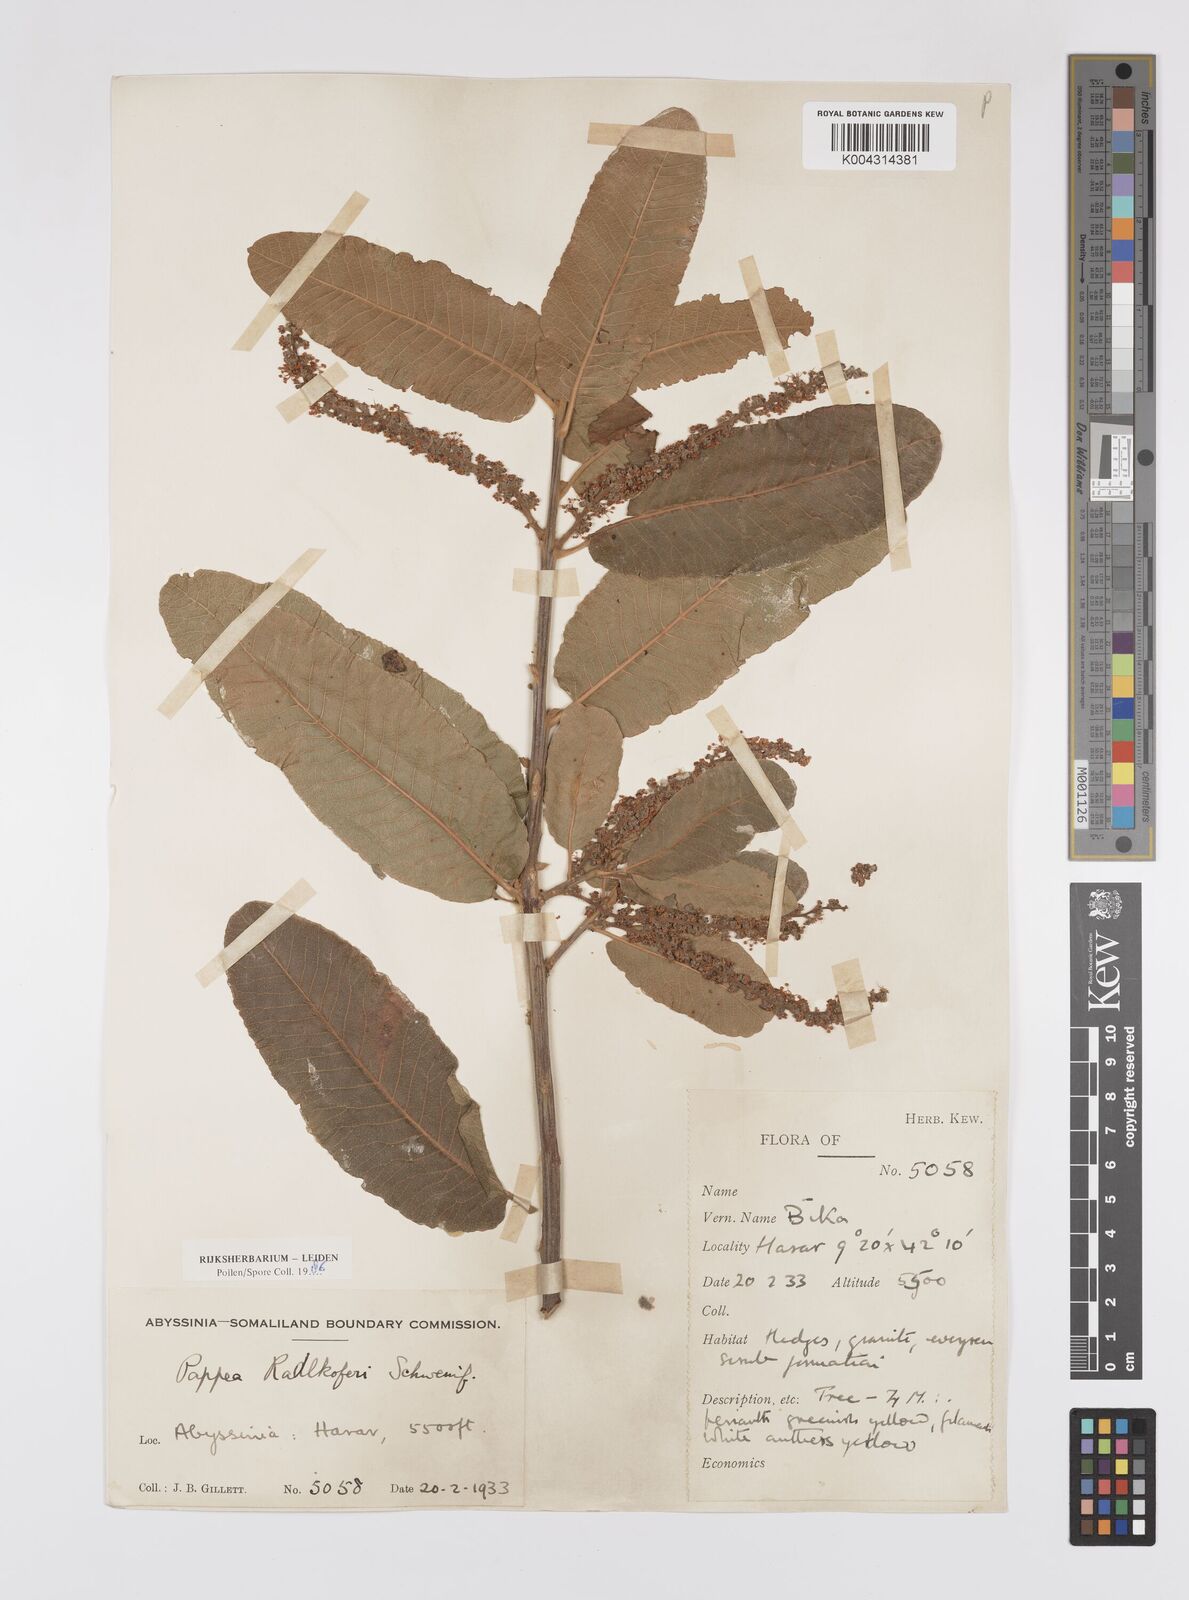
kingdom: Plantae
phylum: Tracheophyta
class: Magnoliopsida
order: Sapindales
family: Sapindaceae
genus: Pappea
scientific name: Pappea capensis
